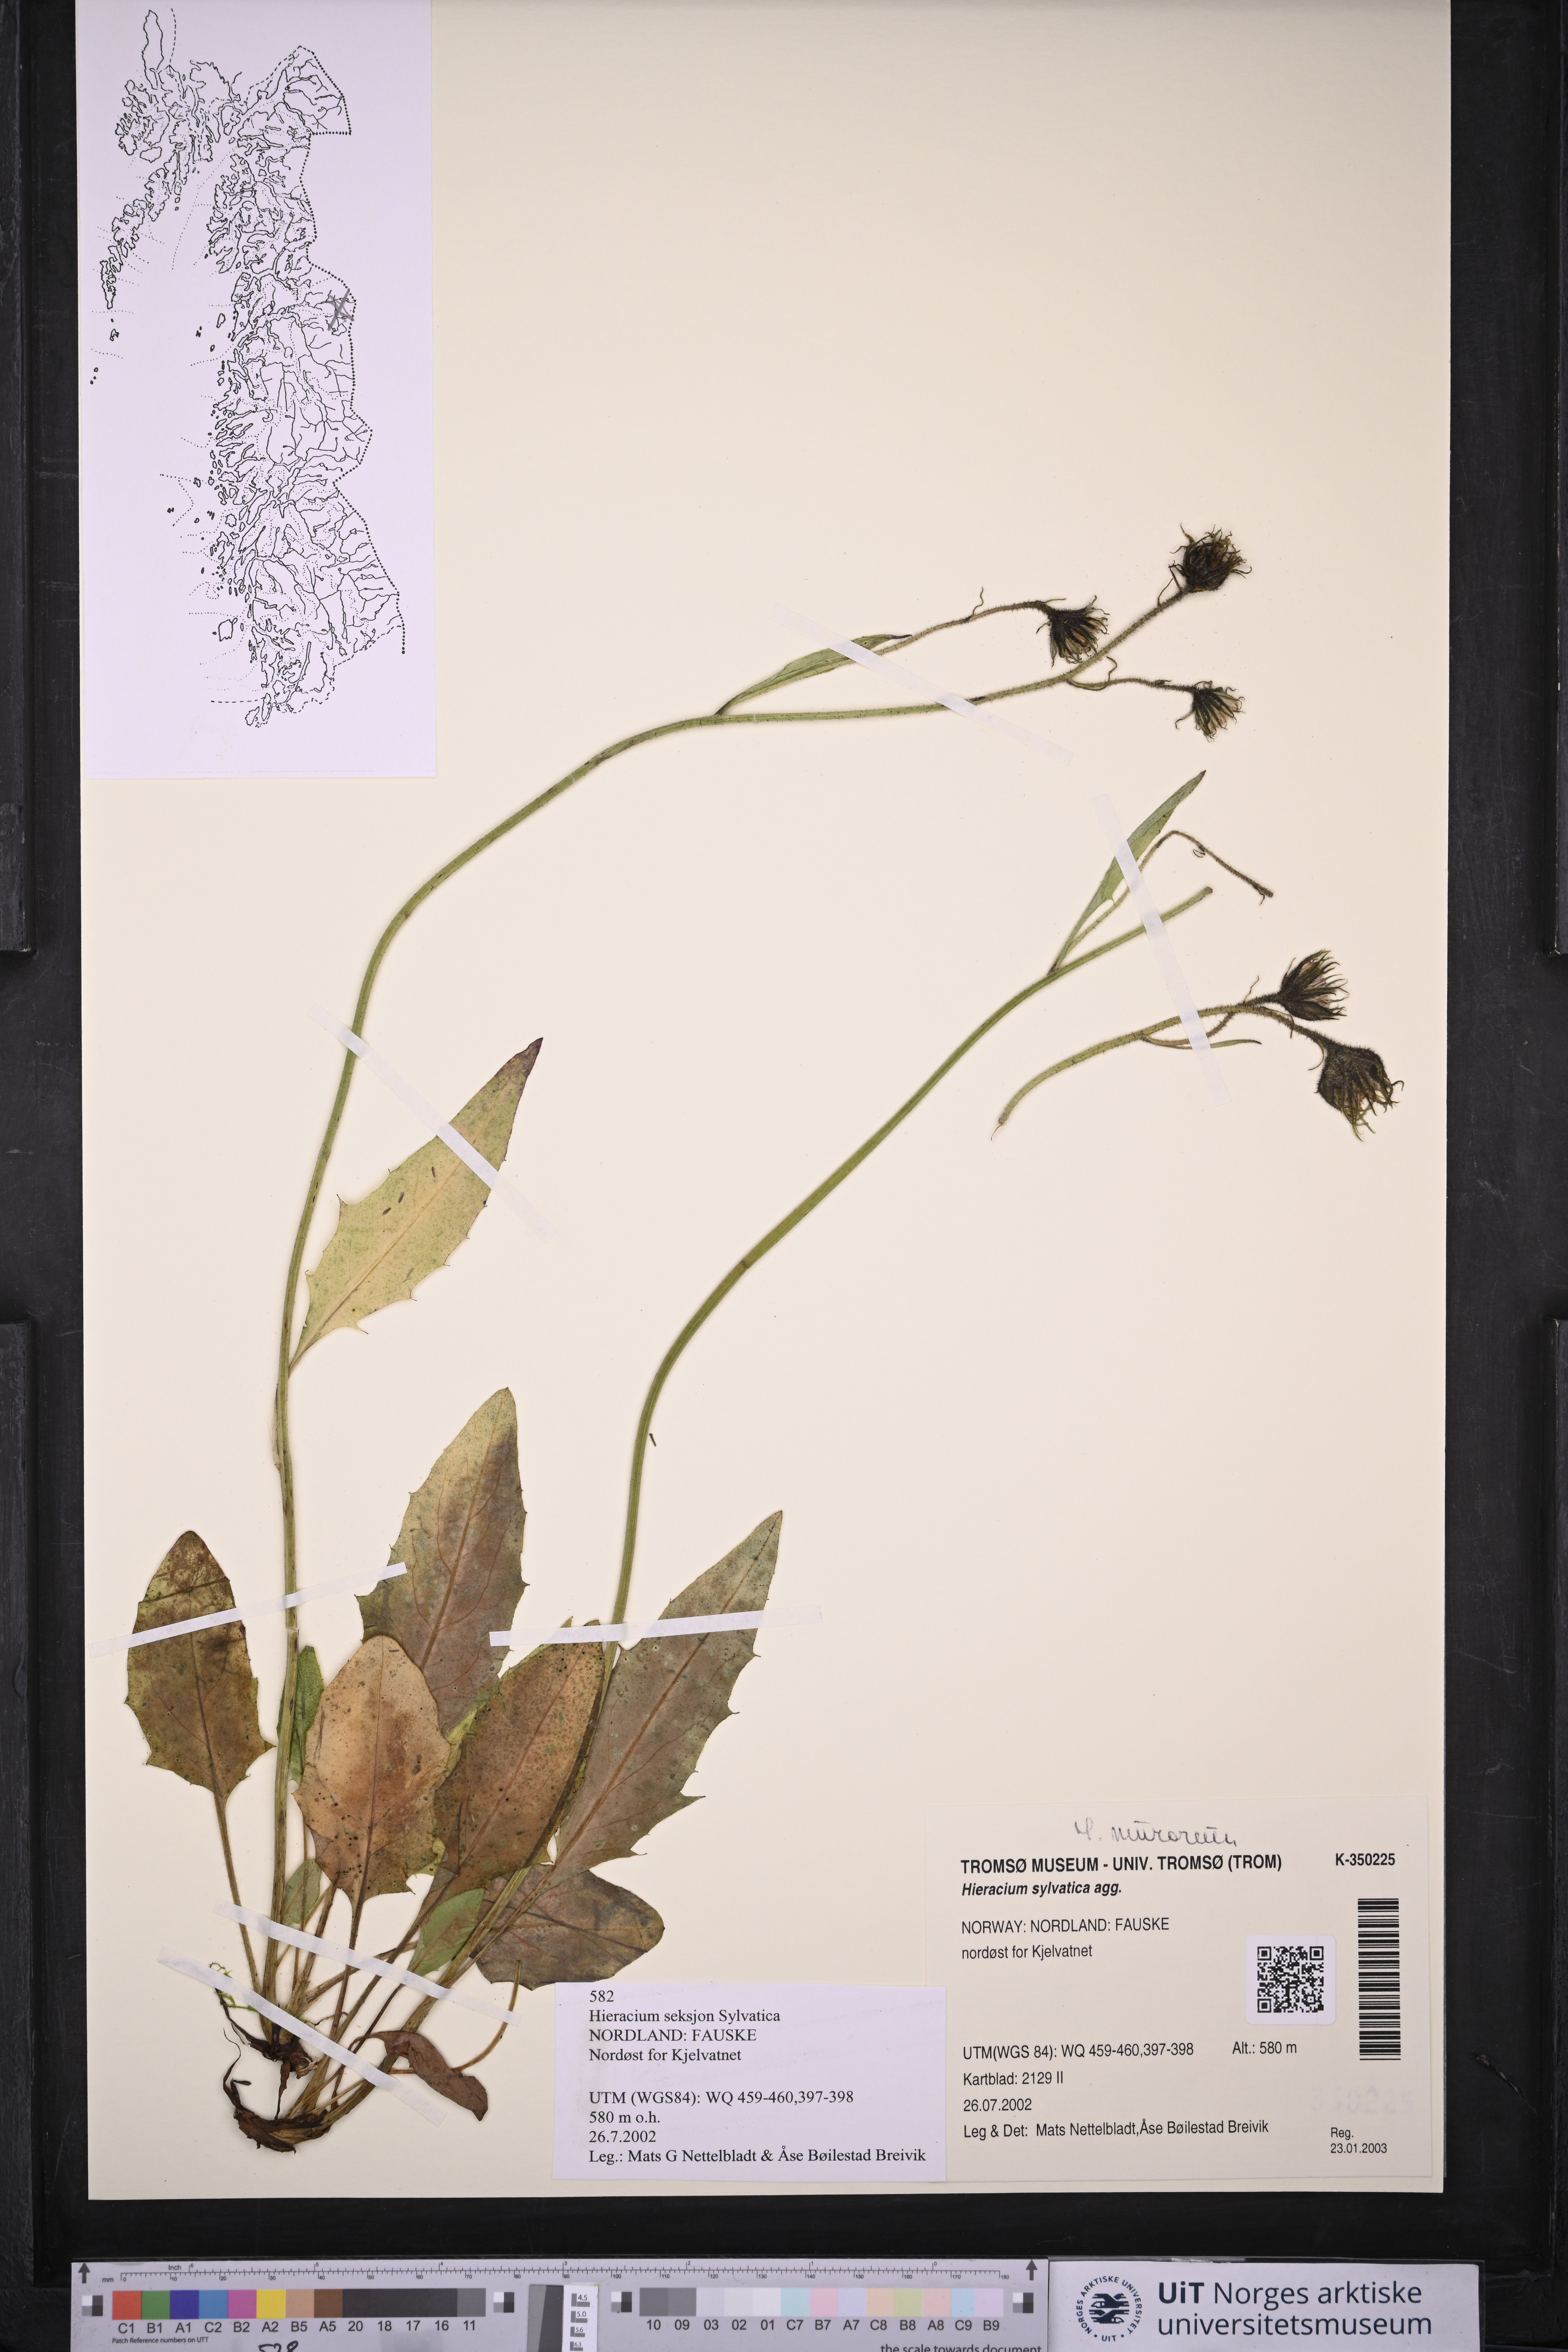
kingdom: Plantae
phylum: Tracheophyta
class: Magnoliopsida
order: Asterales
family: Asteraceae
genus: Hieracium
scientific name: Hieracium
